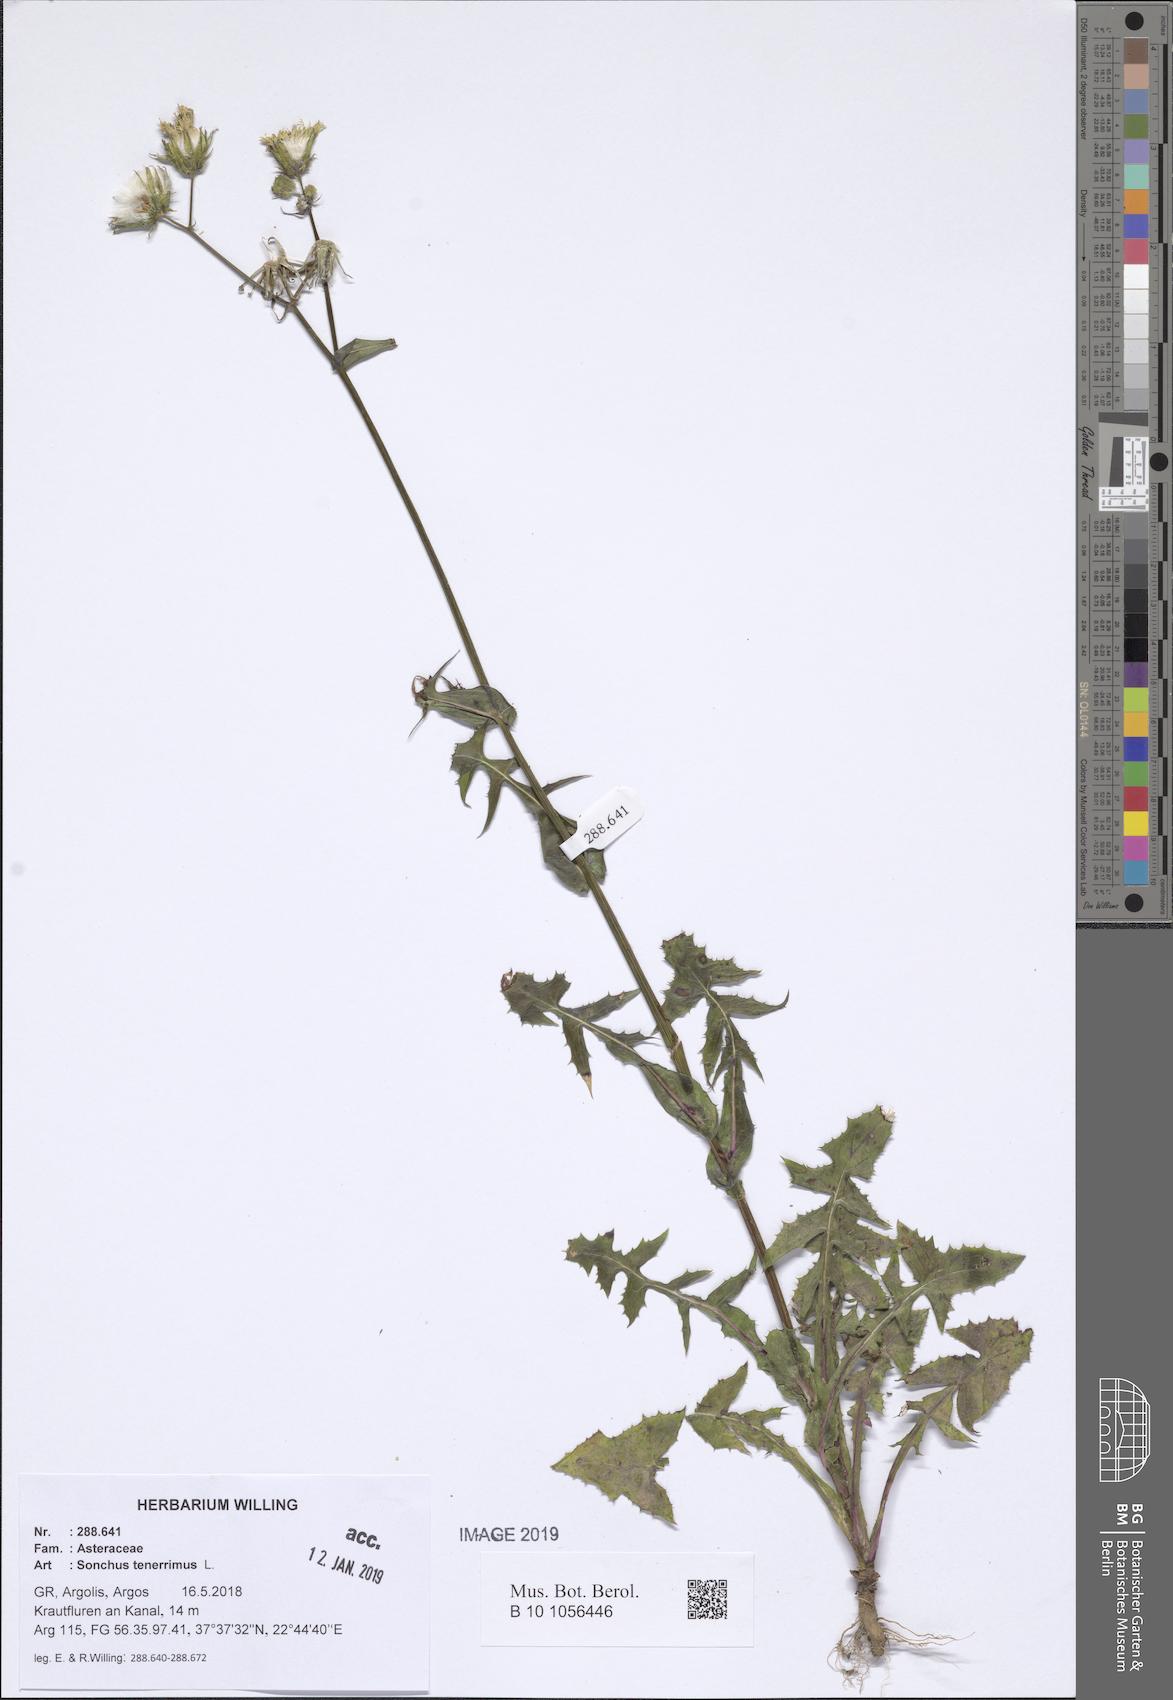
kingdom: Plantae
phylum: Tracheophyta
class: Magnoliopsida
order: Asterales
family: Asteraceae
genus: Sonchus
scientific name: Sonchus tenerrimus
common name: Clammy sowthistle
